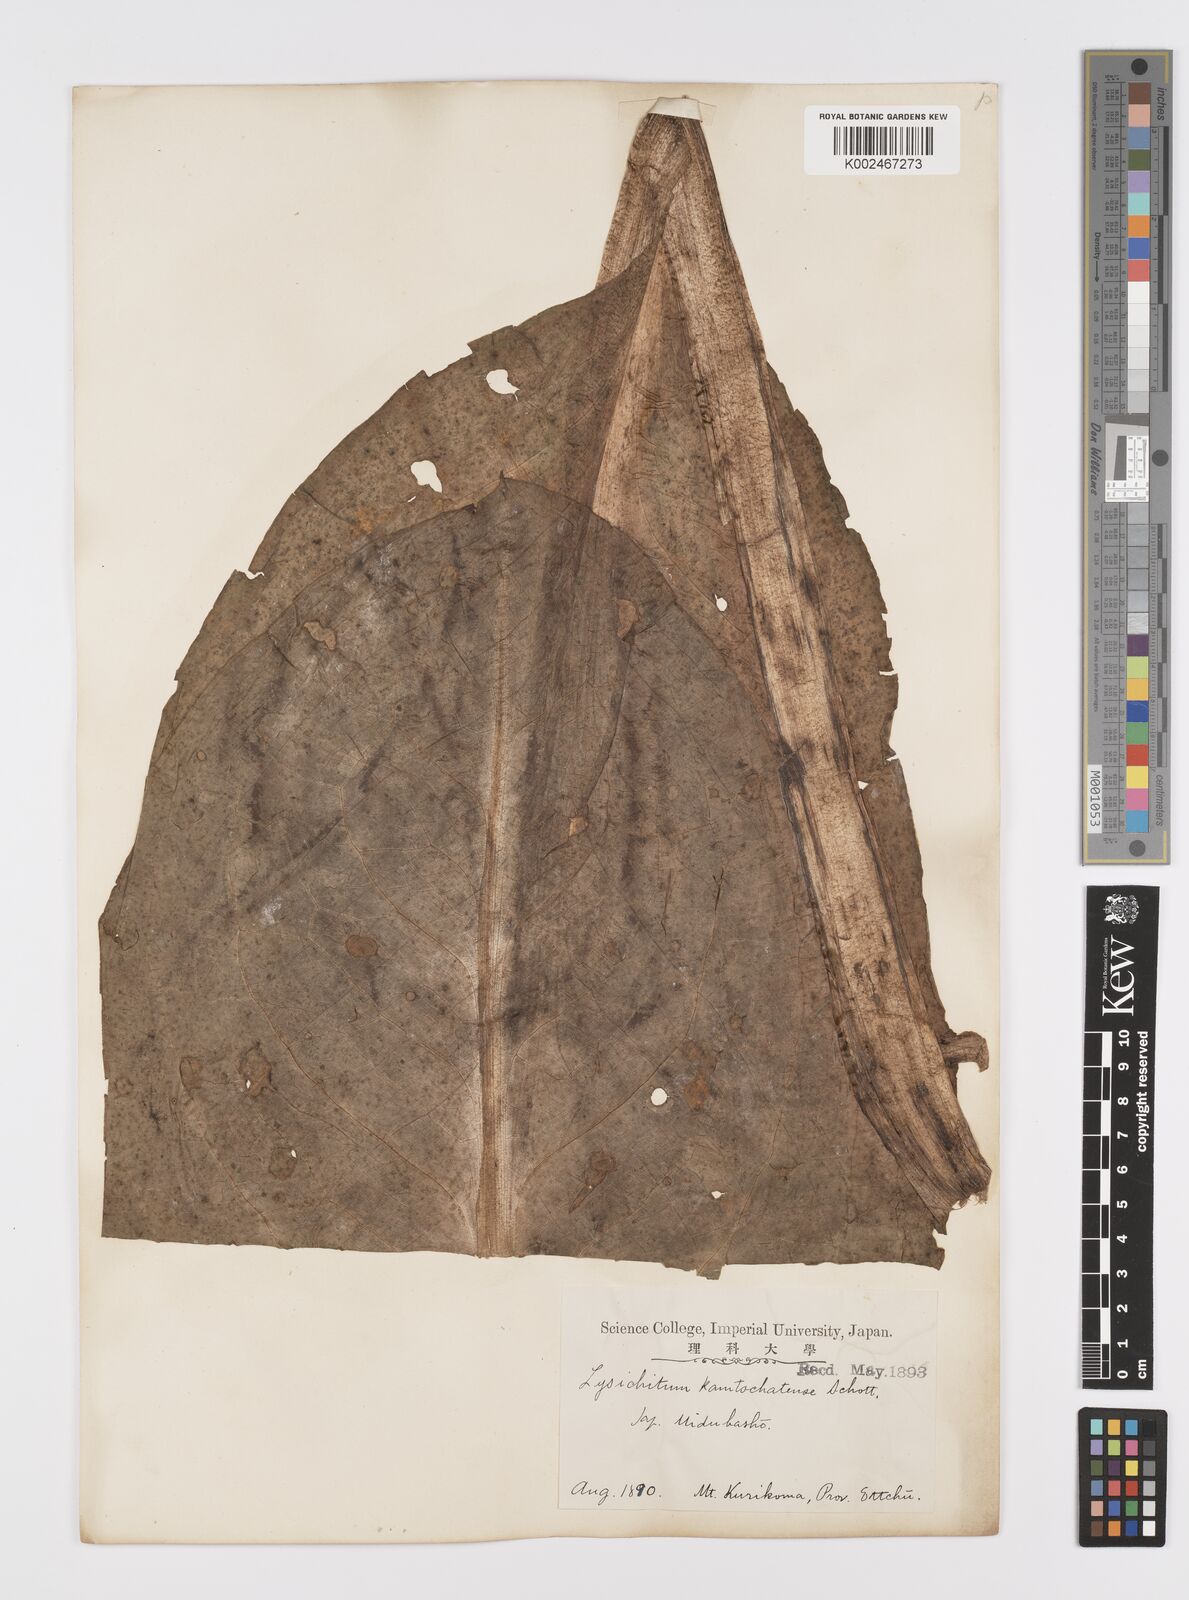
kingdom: Plantae
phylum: Tracheophyta
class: Liliopsida
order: Alismatales
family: Araceae
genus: Lysichiton
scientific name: Lysichiton camtschatcensis
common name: Asian skunk-cabbage
